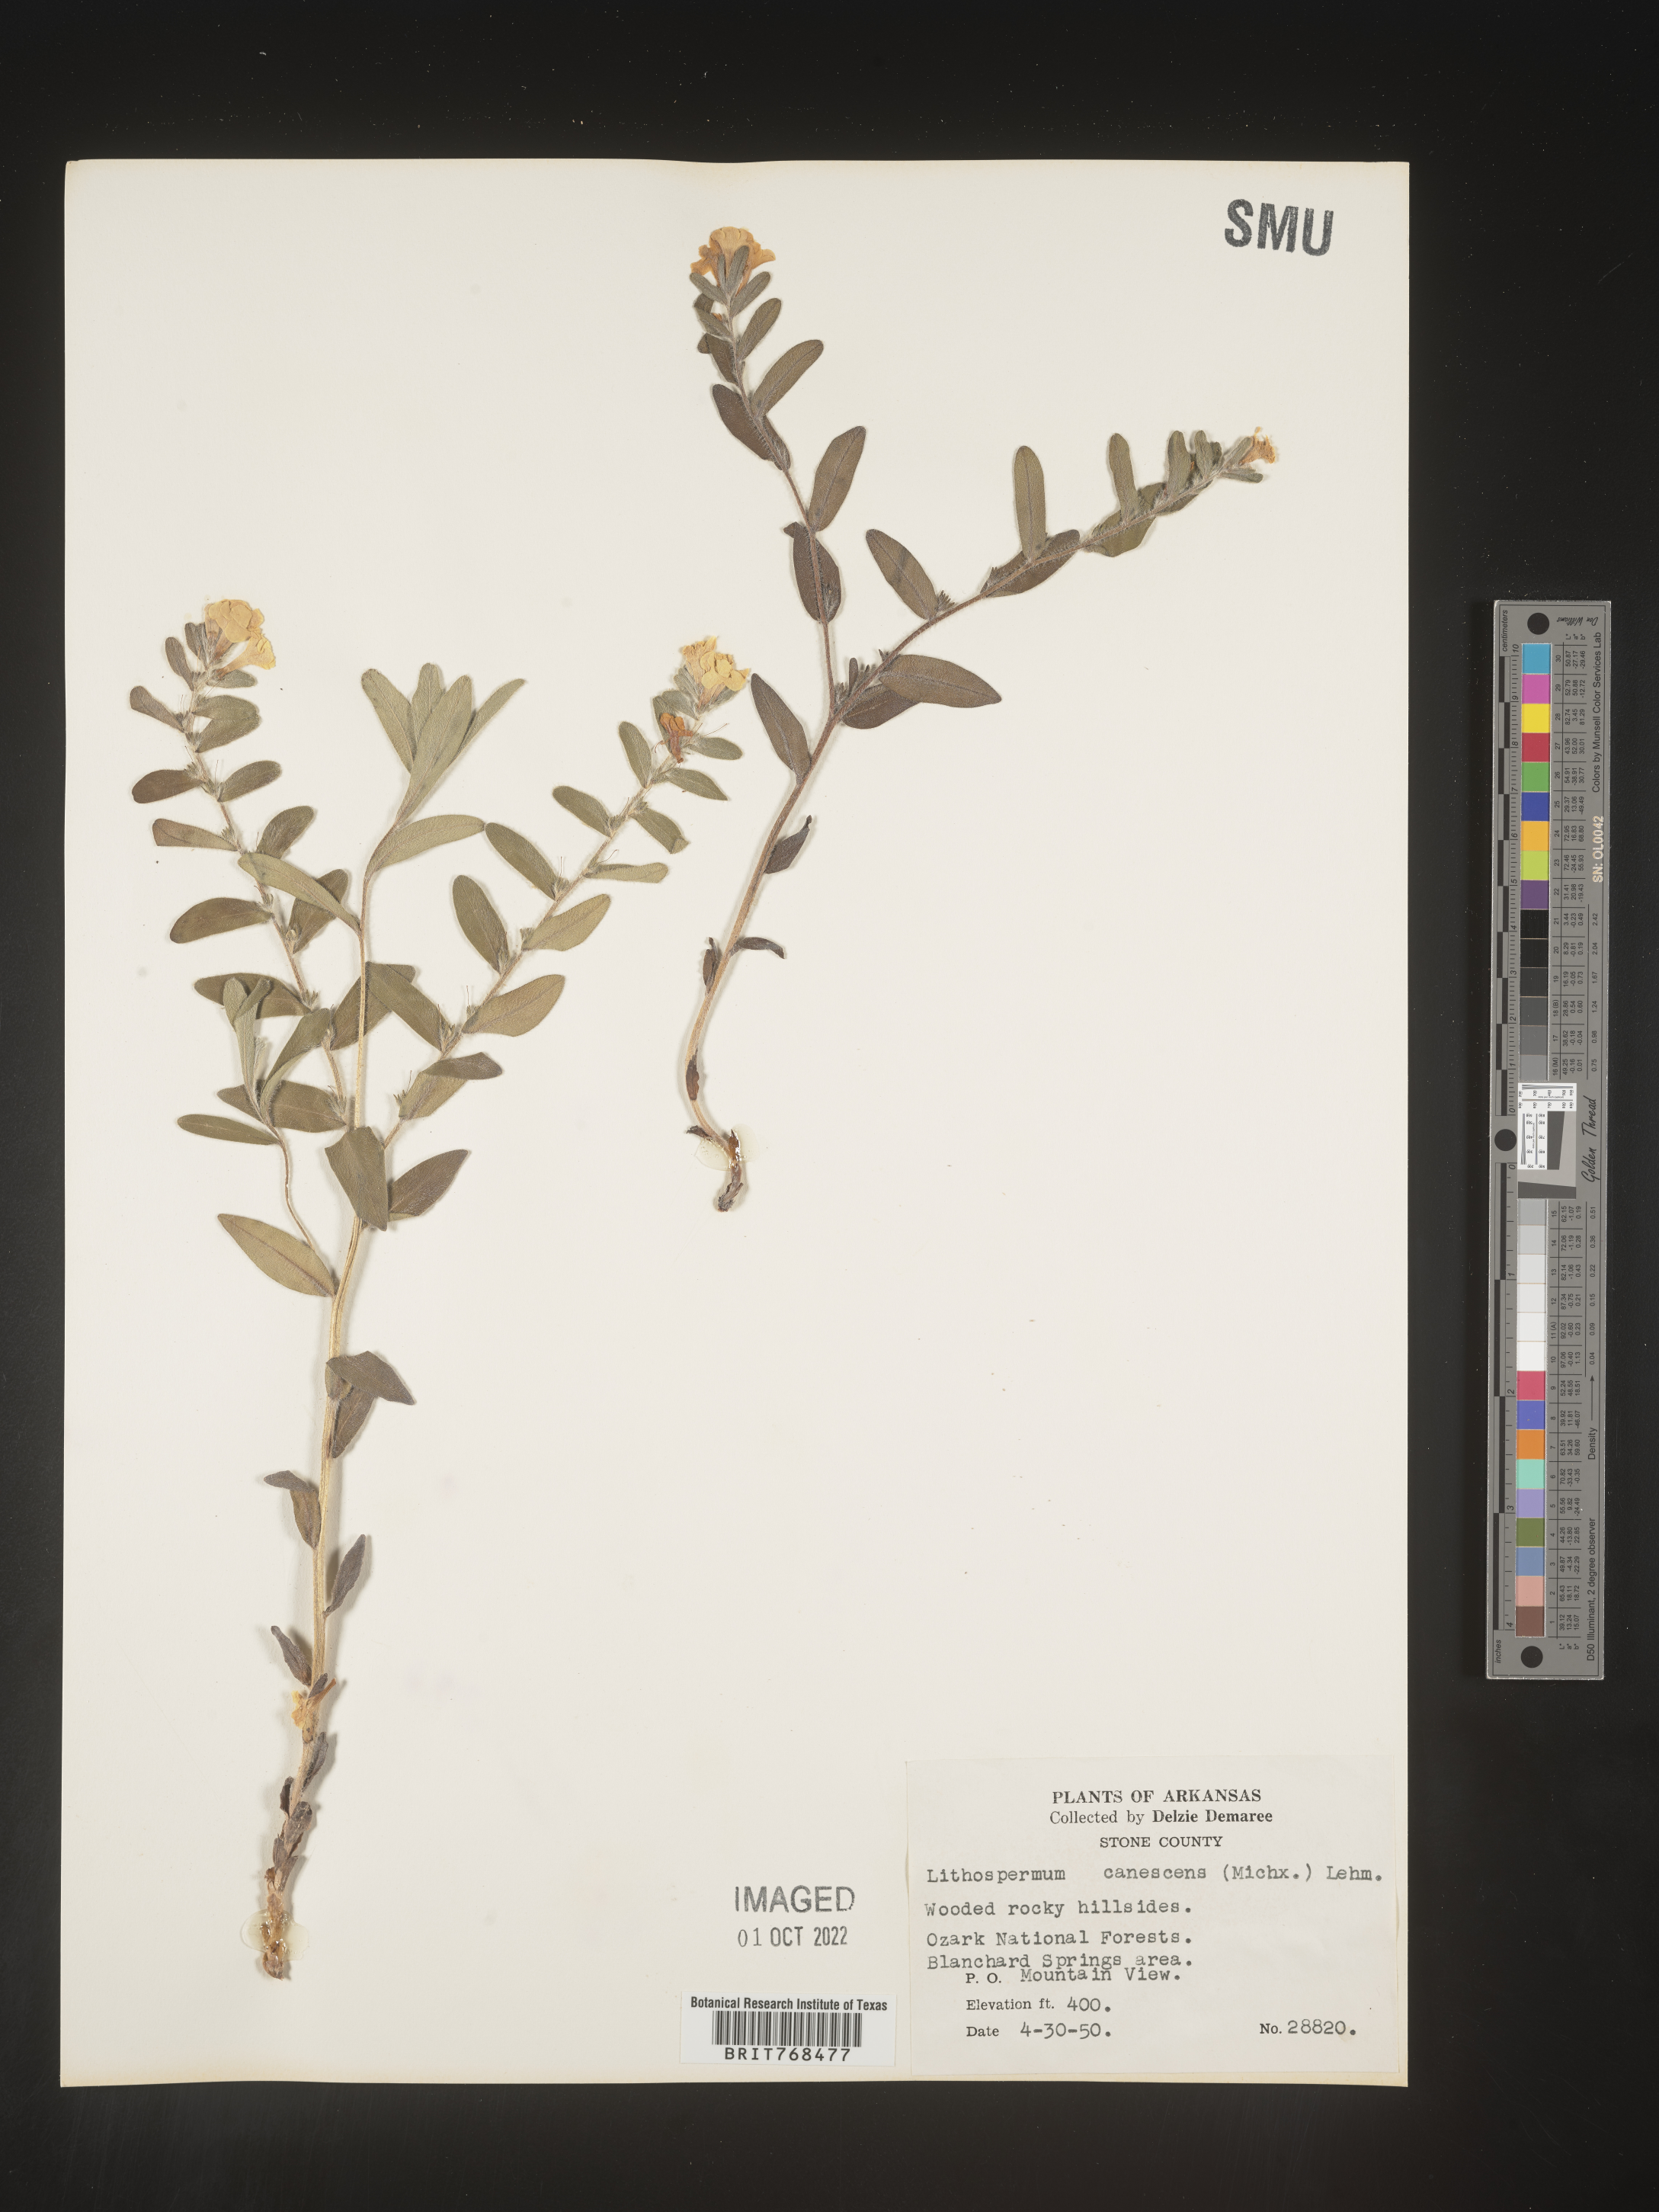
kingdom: Plantae
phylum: Tracheophyta
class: Magnoliopsida
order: Boraginales
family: Boraginaceae
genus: Lithospermum
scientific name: Lithospermum canescens
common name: Hoary puccoon
